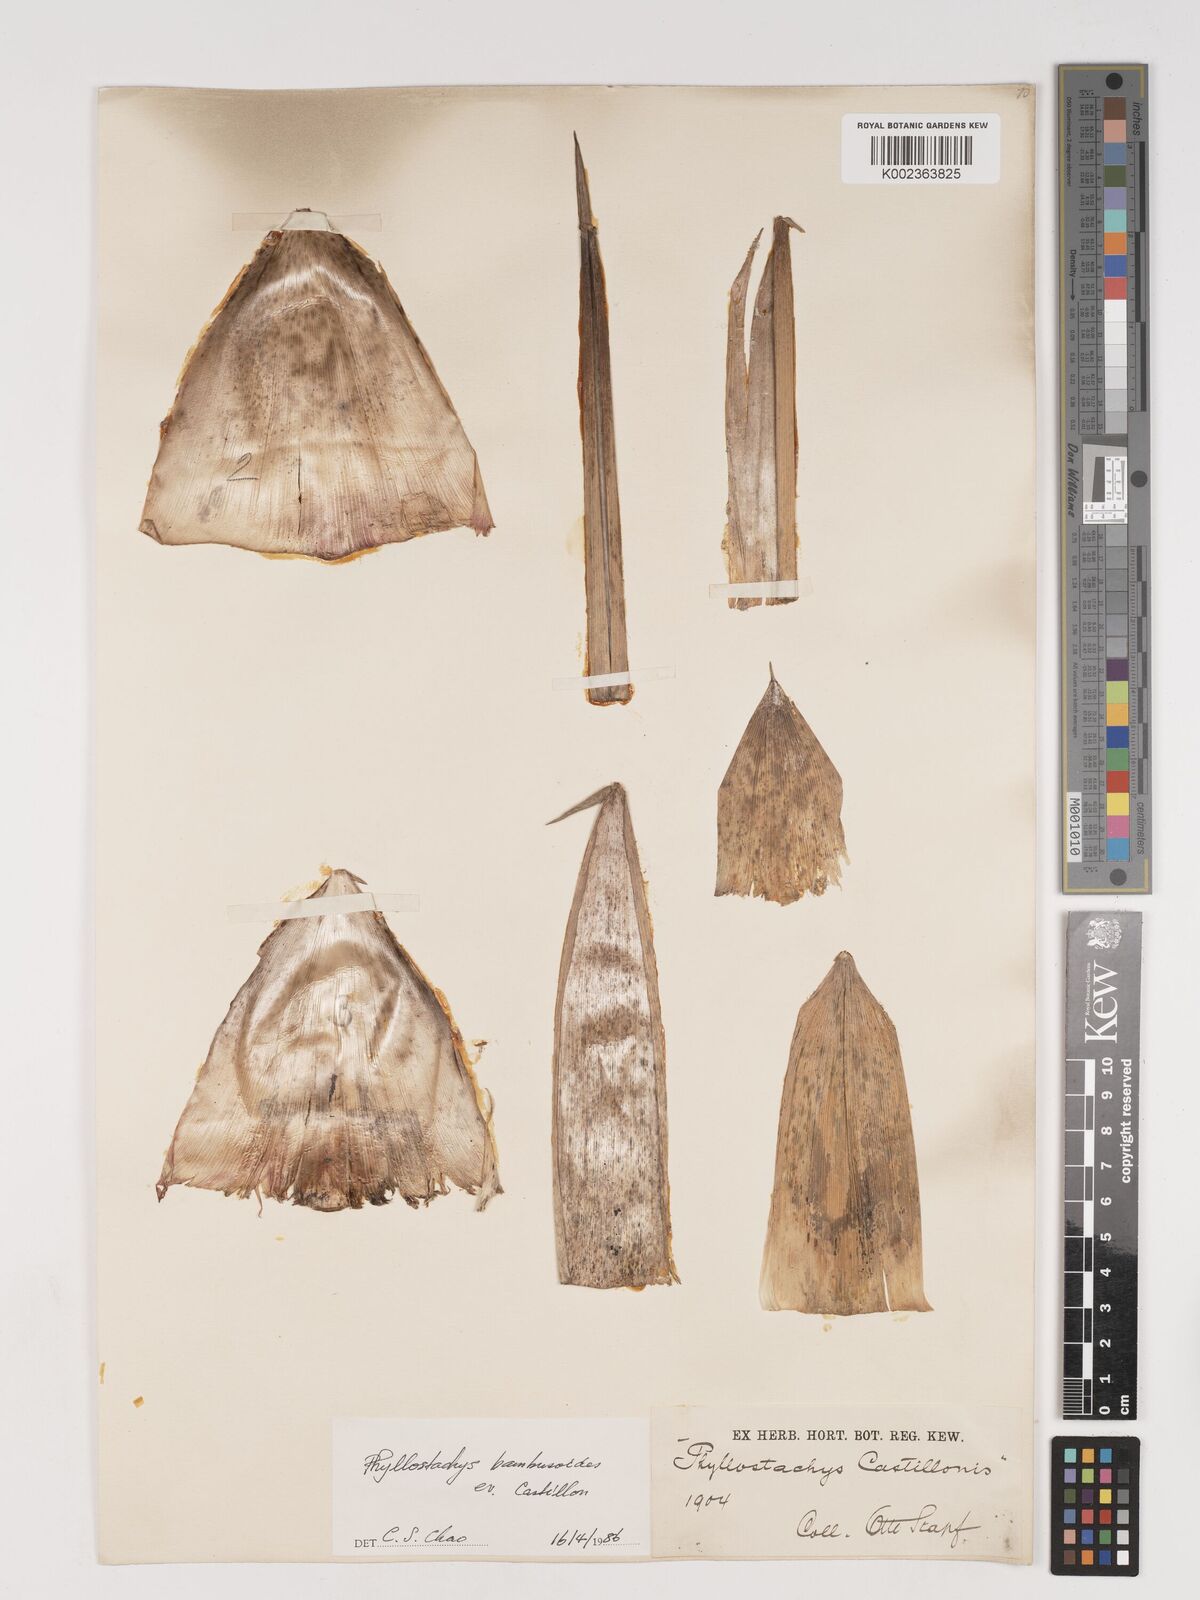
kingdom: Plantae
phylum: Tracheophyta
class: Liliopsida
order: Poales
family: Poaceae
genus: Phyllostachys
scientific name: Phyllostachys reticulata
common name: Bamboo
